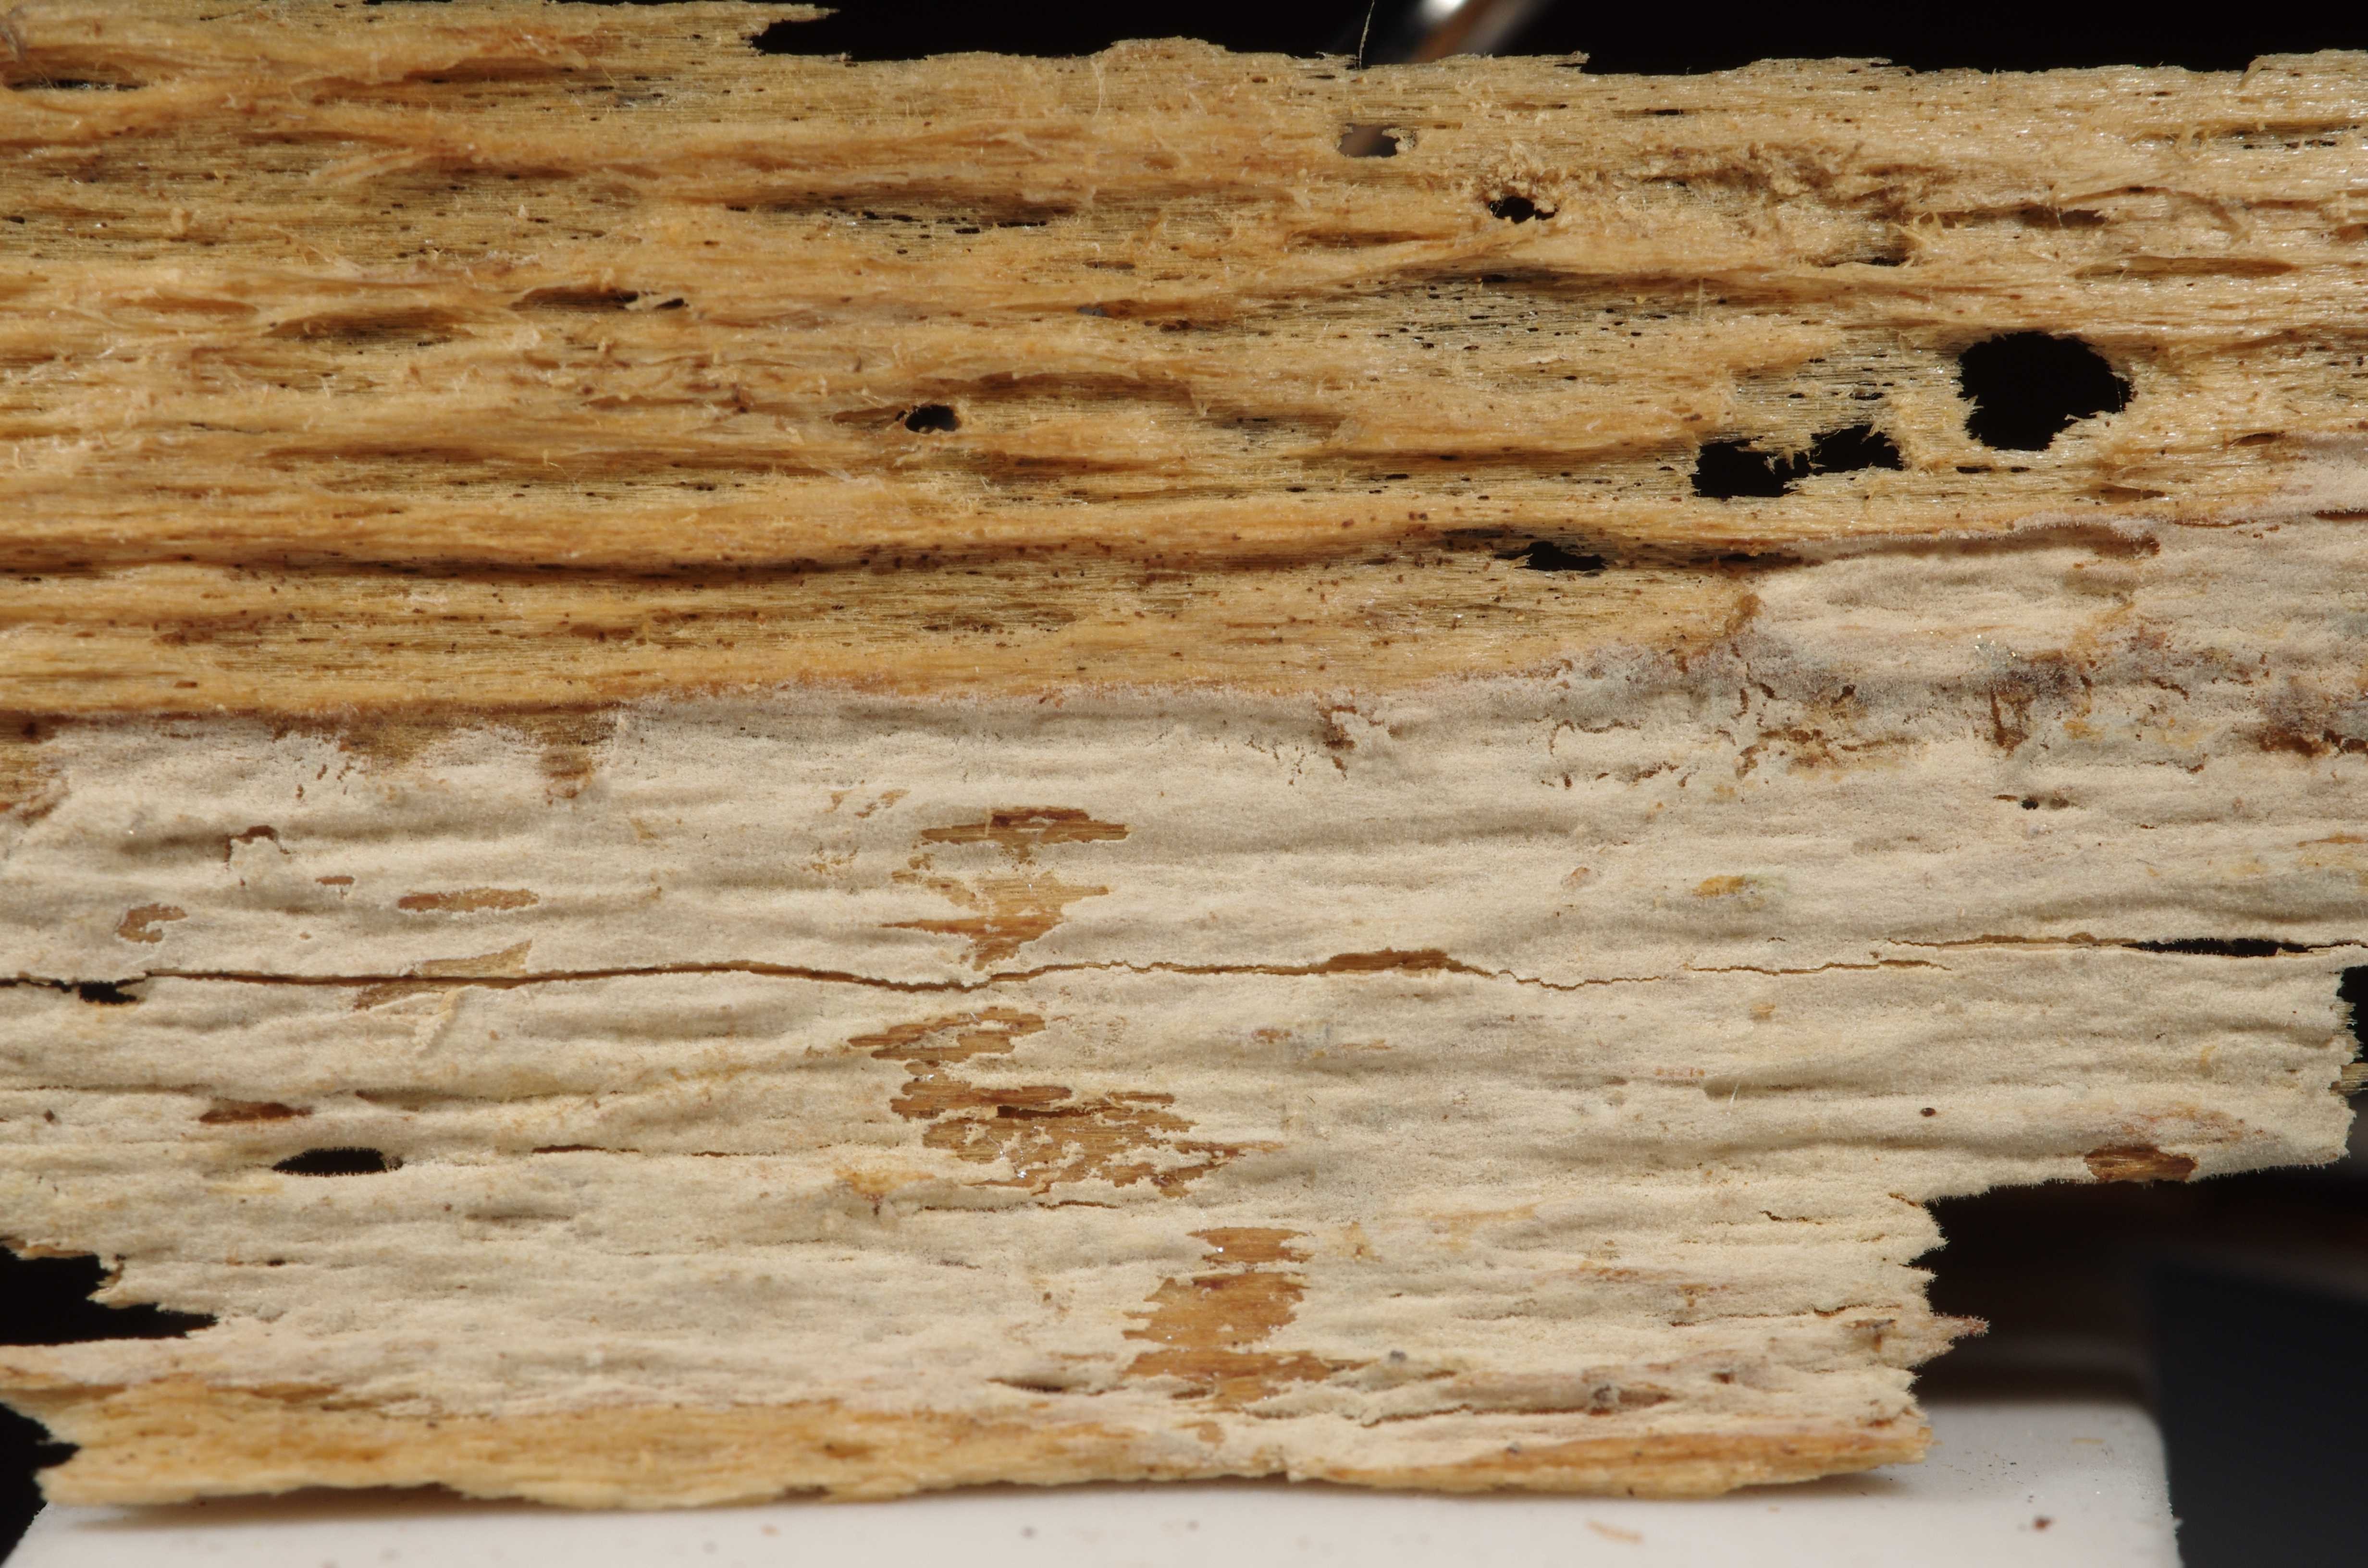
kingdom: Fungi
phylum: Basidiomycota
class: Agaricomycetes
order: Hymenochaetales
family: Hymenochaetaceae
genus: Tubulicrinis
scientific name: Tubulicrinis subulatus
